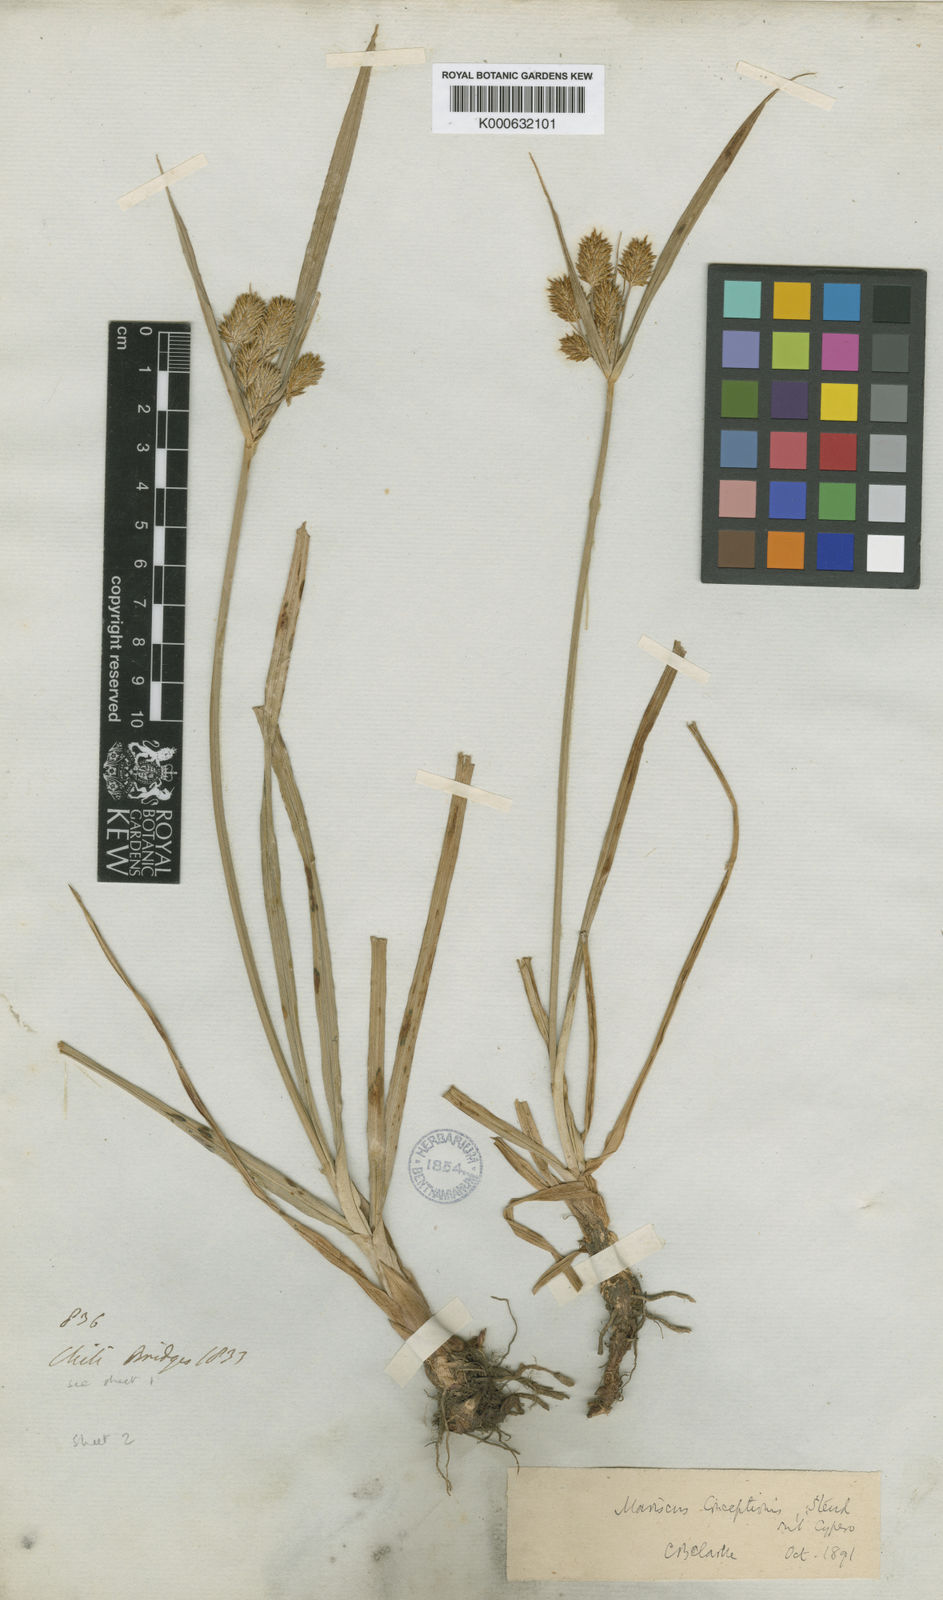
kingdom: Plantae
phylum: Tracheophyta
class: Liliopsida
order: Poales
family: Cyperaceae
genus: Cyperus
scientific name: Cyperus rigens
